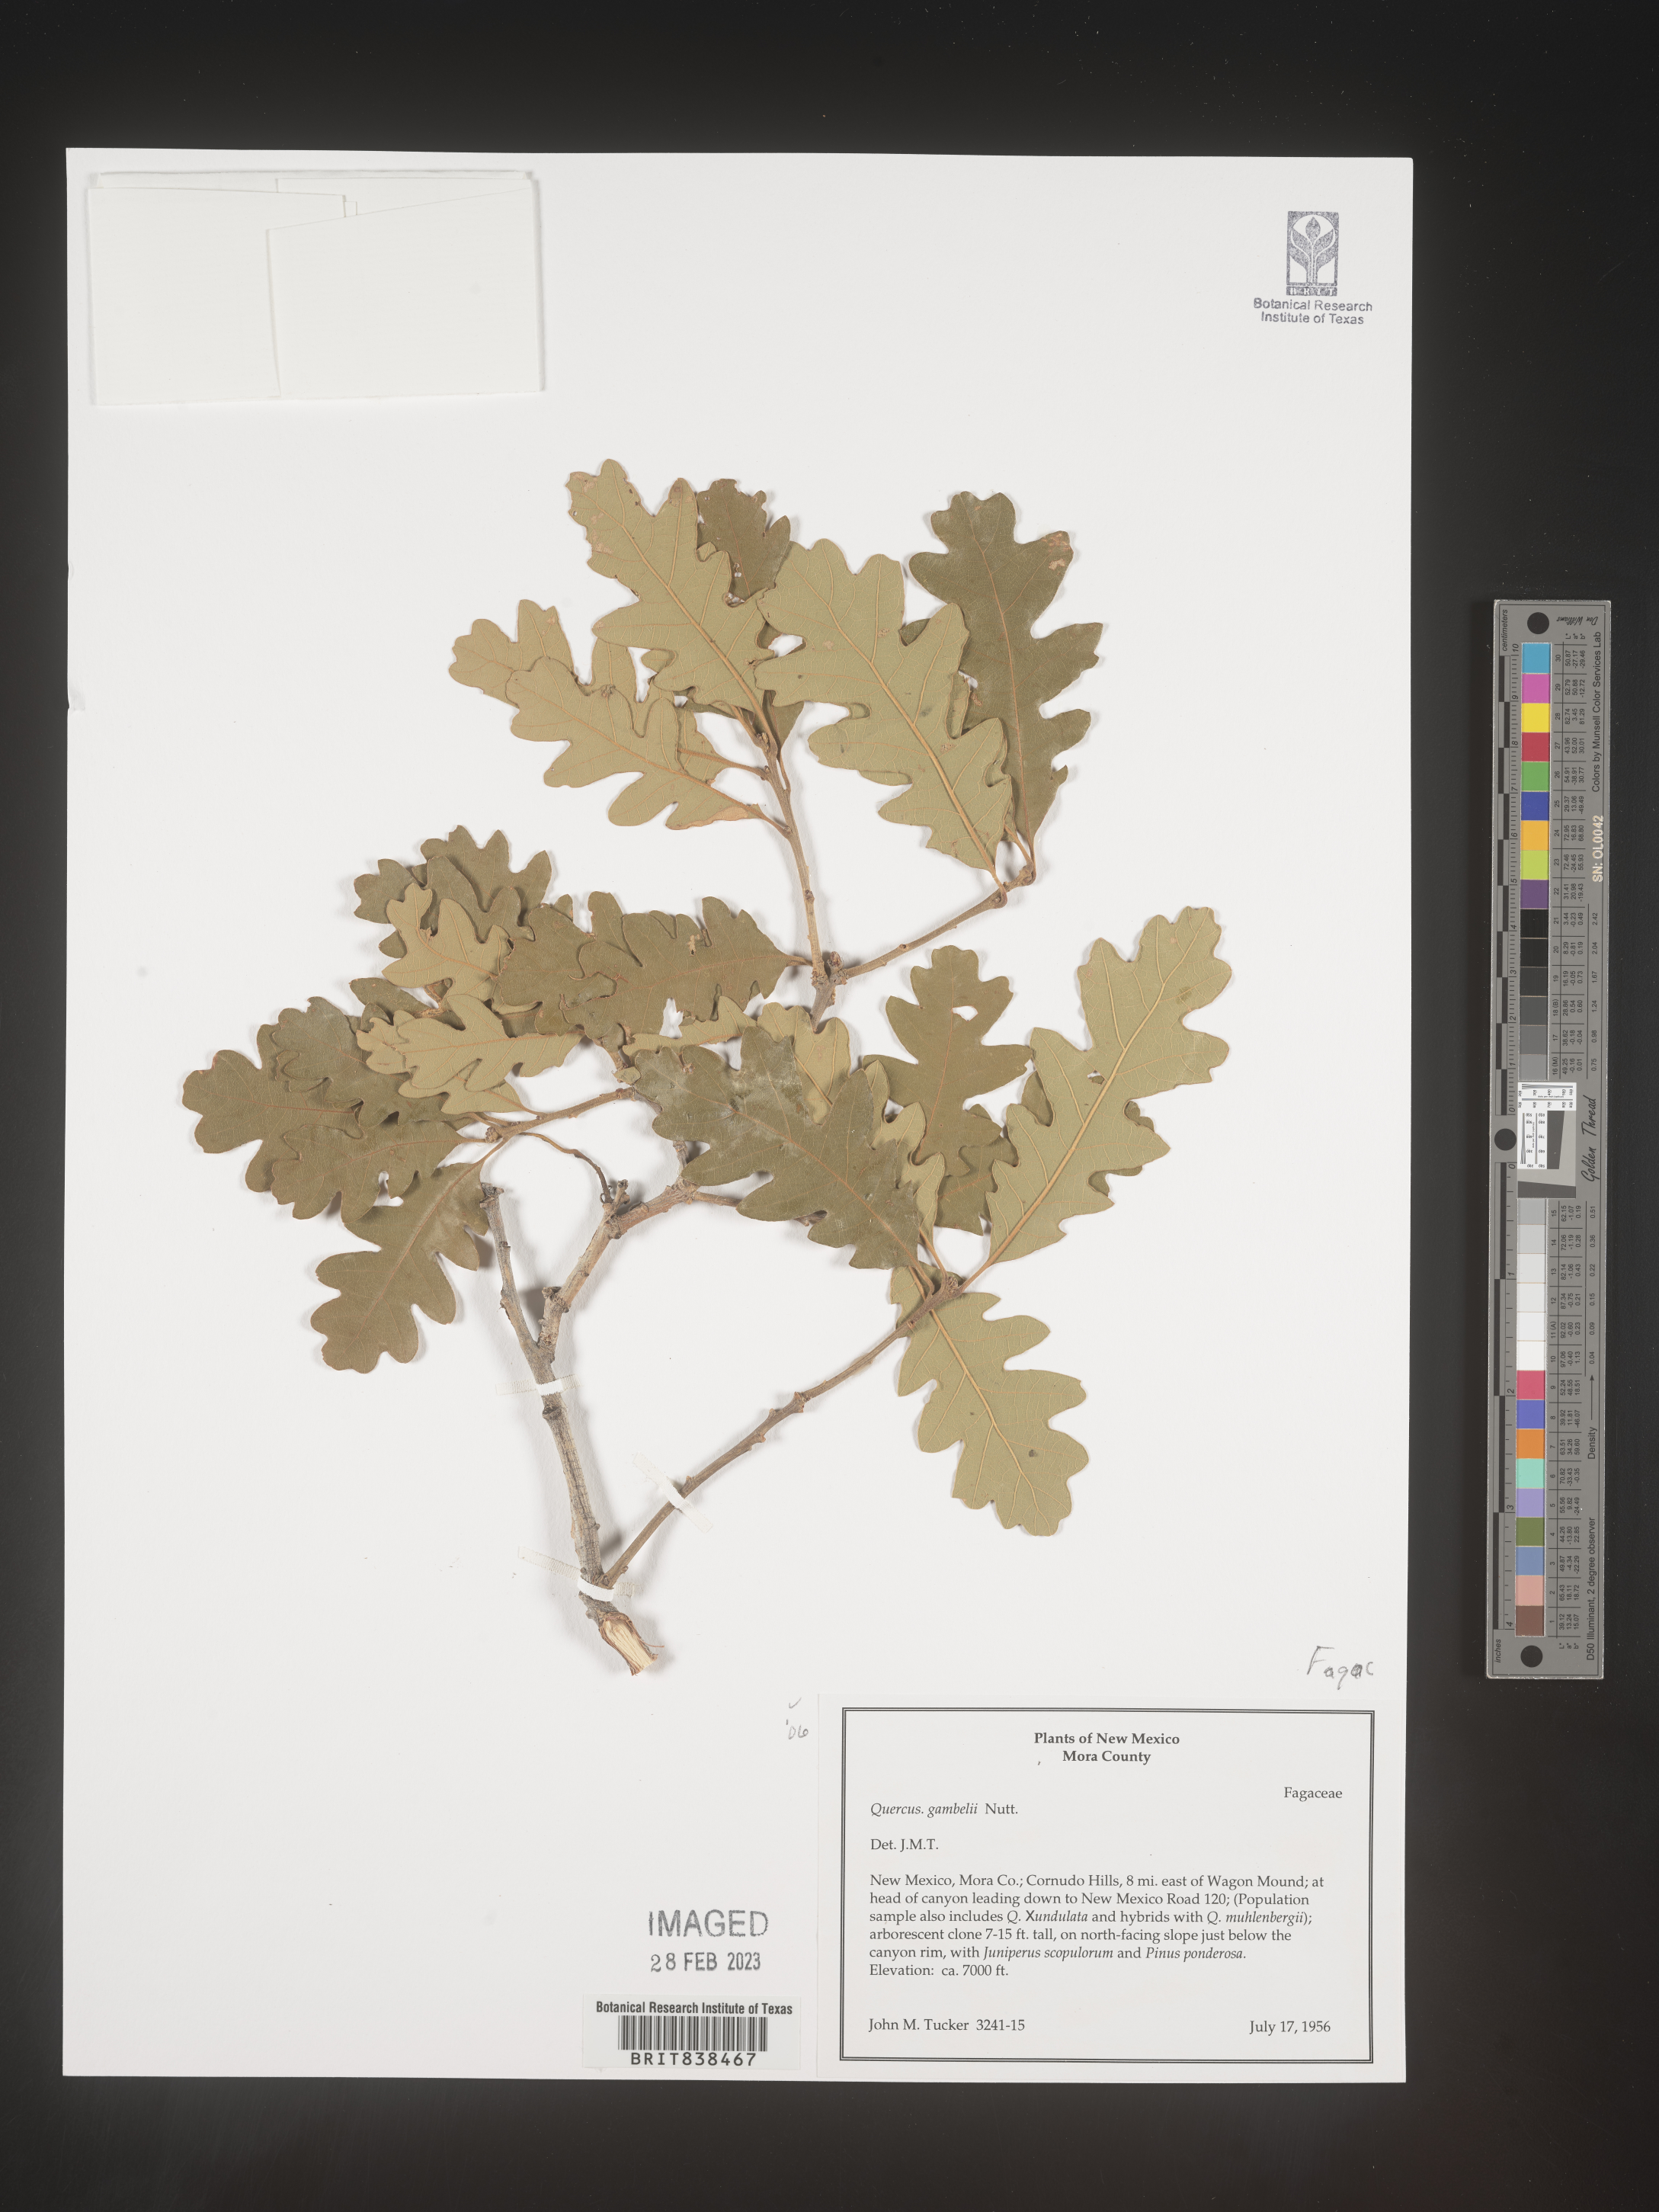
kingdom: Plantae
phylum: Tracheophyta
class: Magnoliopsida
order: Fagales
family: Fagaceae
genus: Quercus
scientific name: Quercus gambelii
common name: Gambel oak
